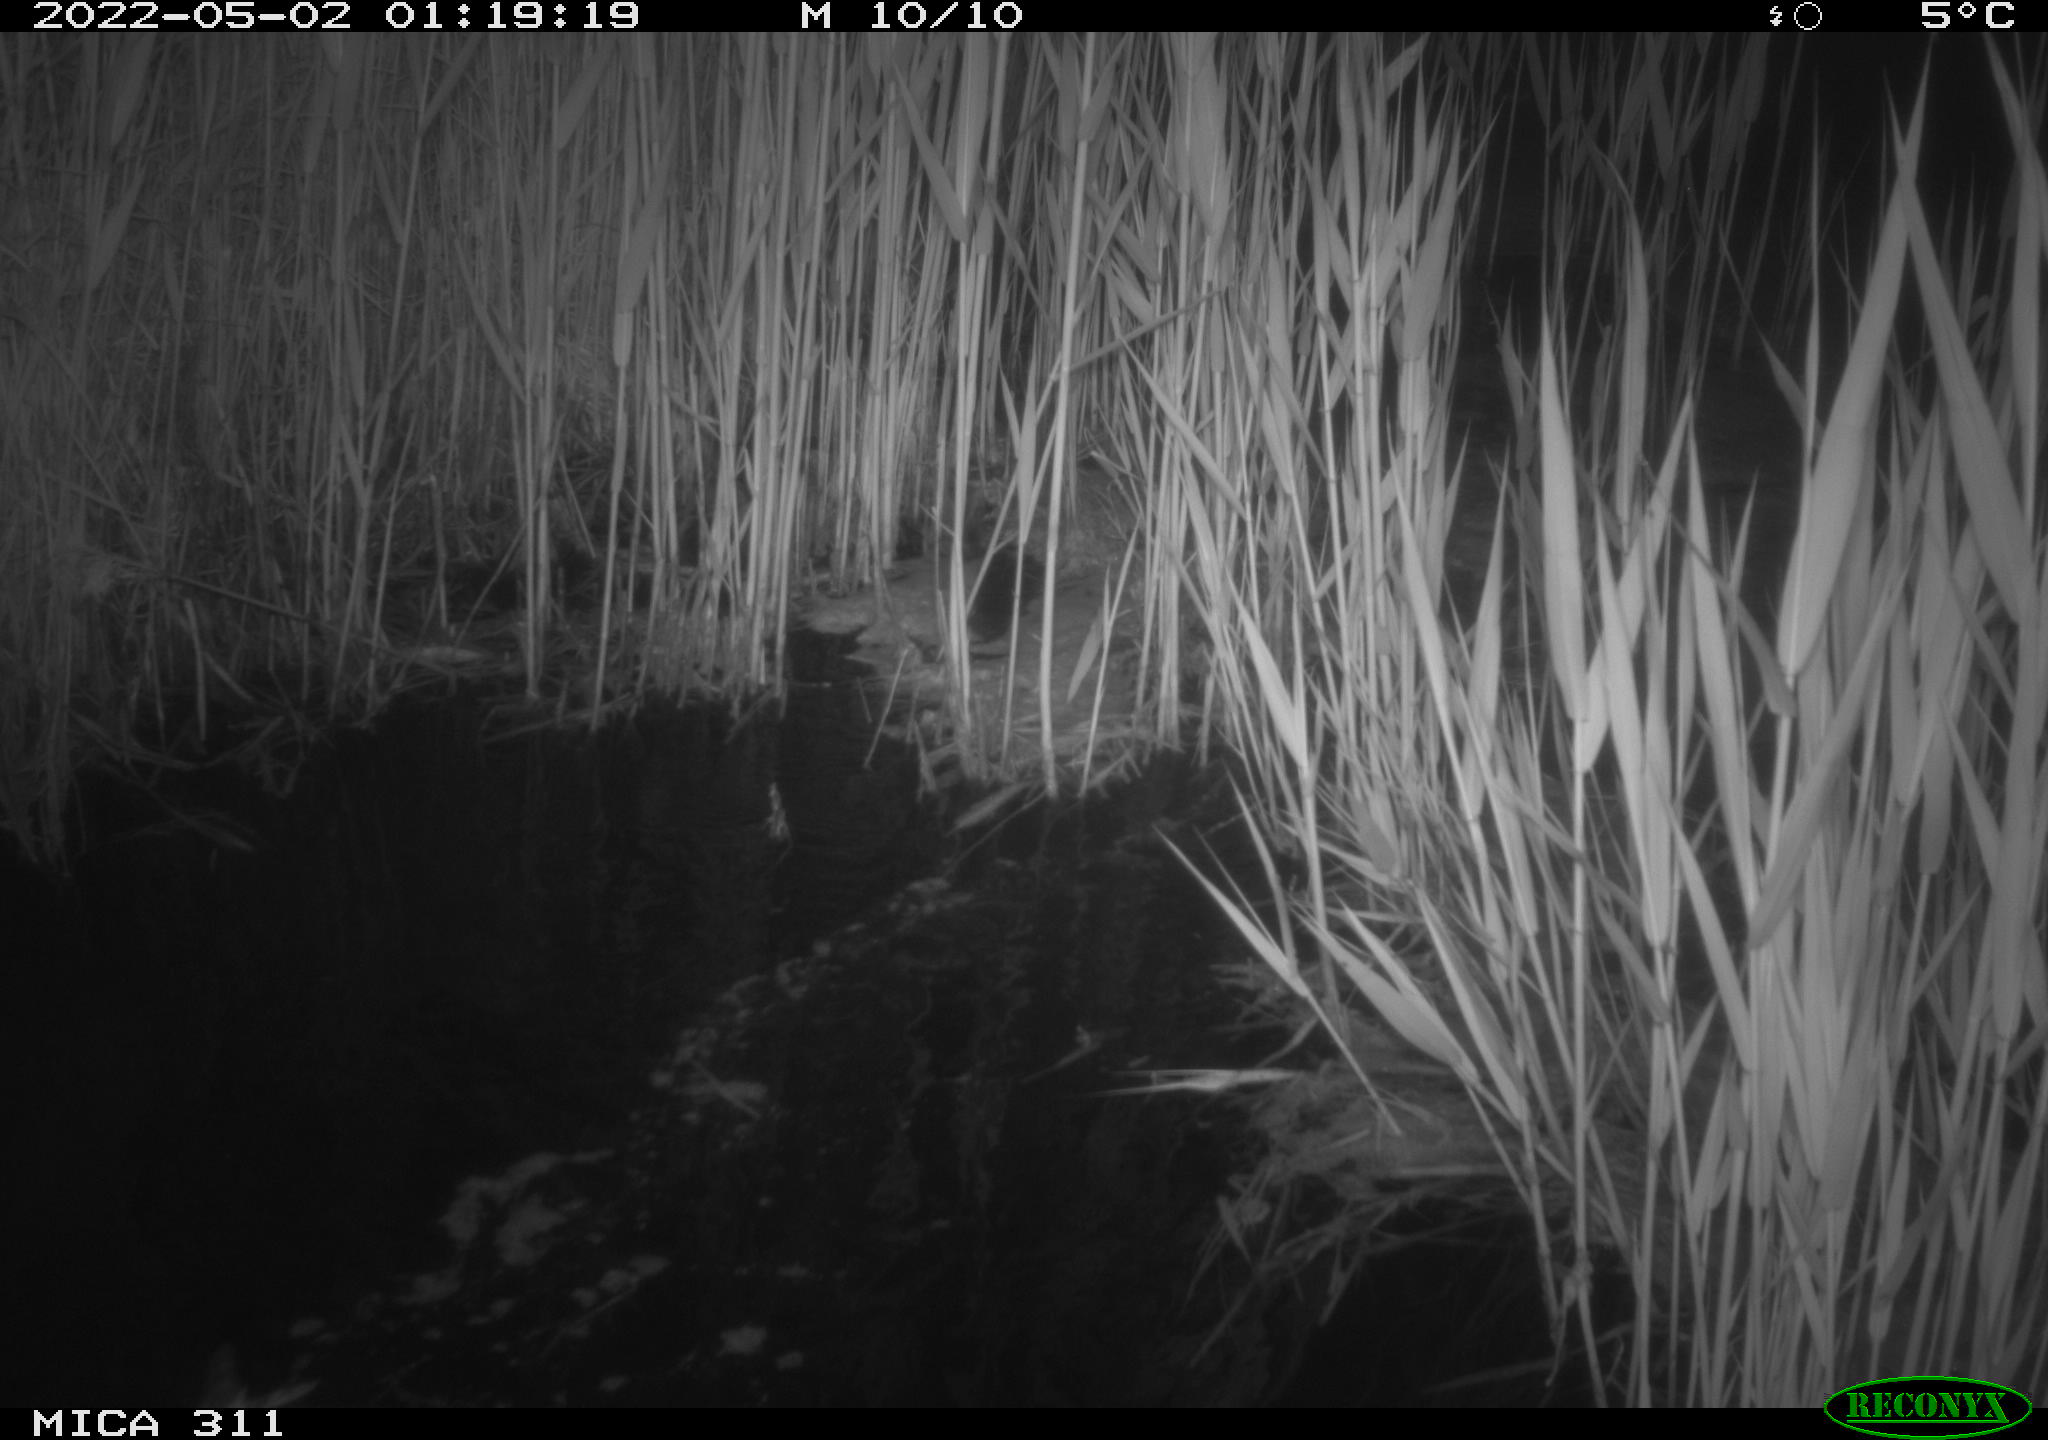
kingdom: Animalia
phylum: Chordata
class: Aves
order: Anseriformes
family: Anatidae
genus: Anas
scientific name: Anas platyrhynchos
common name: Mallard
